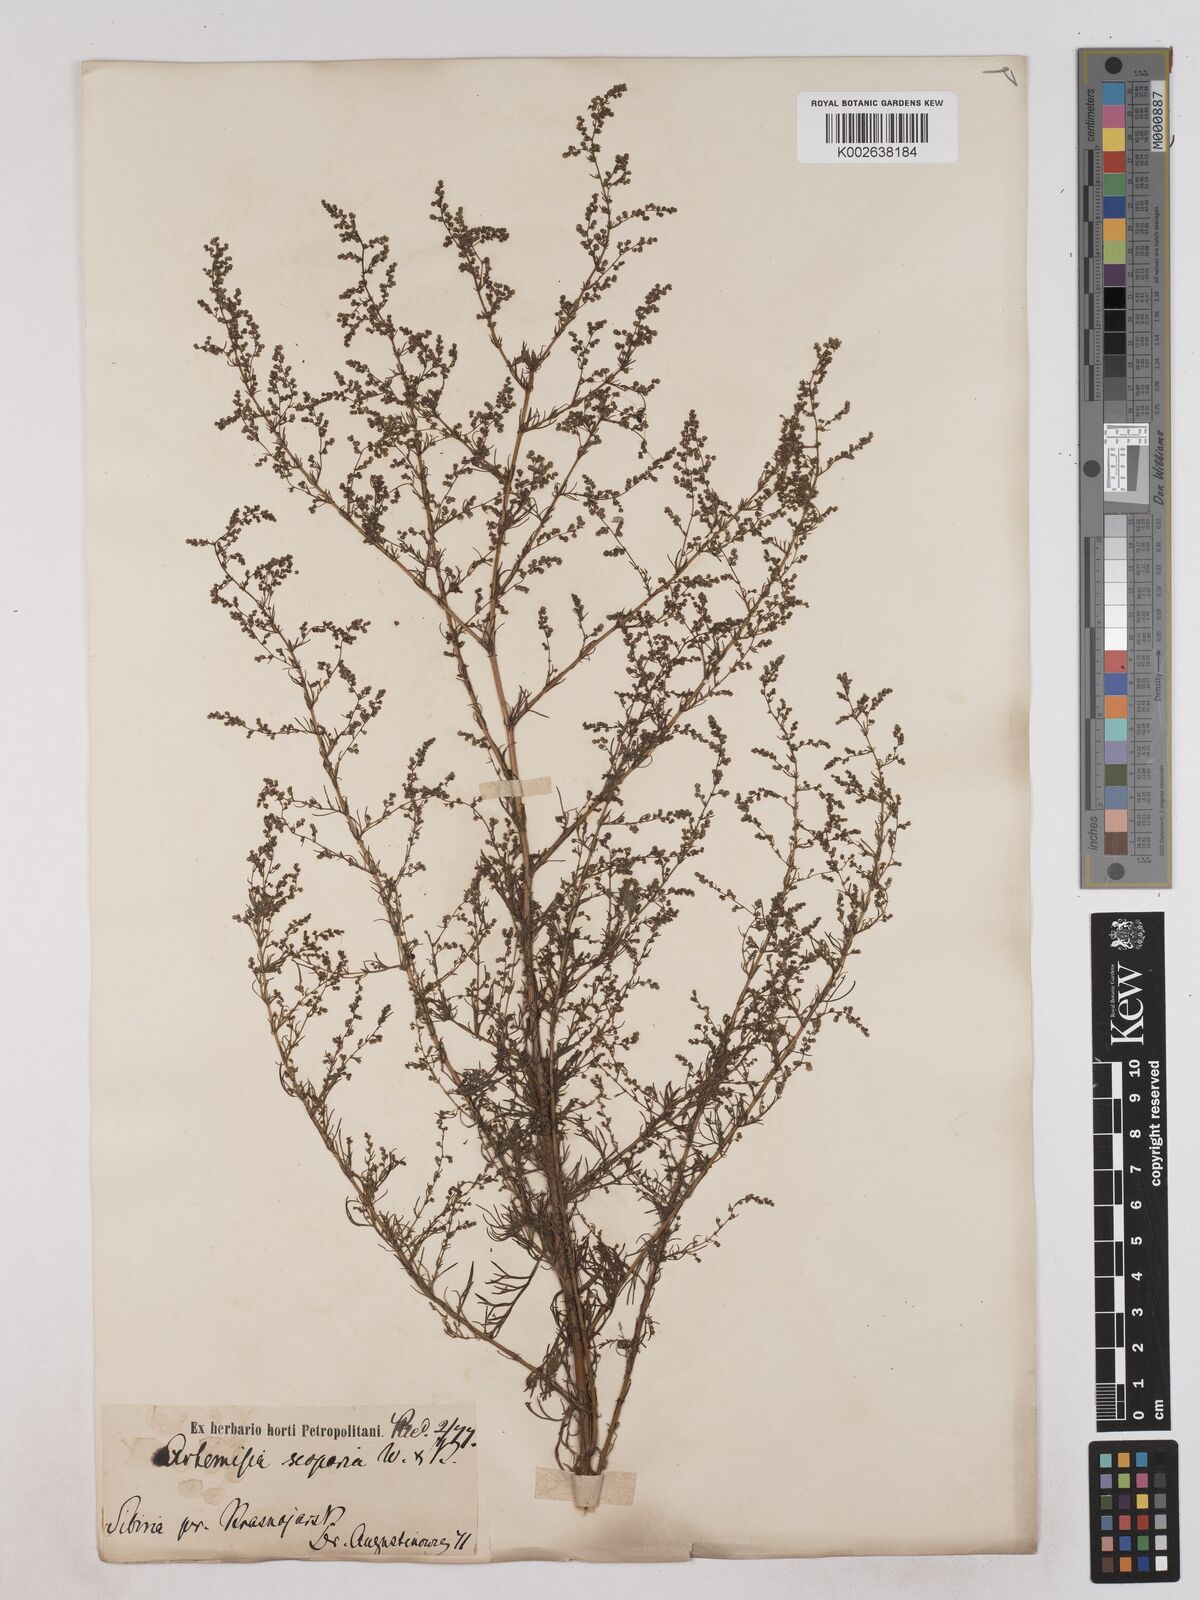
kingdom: Plantae
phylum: Tracheophyta
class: Magnoliopsida
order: Asterales
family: Asteraceae
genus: Artemisia
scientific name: Artemisia
